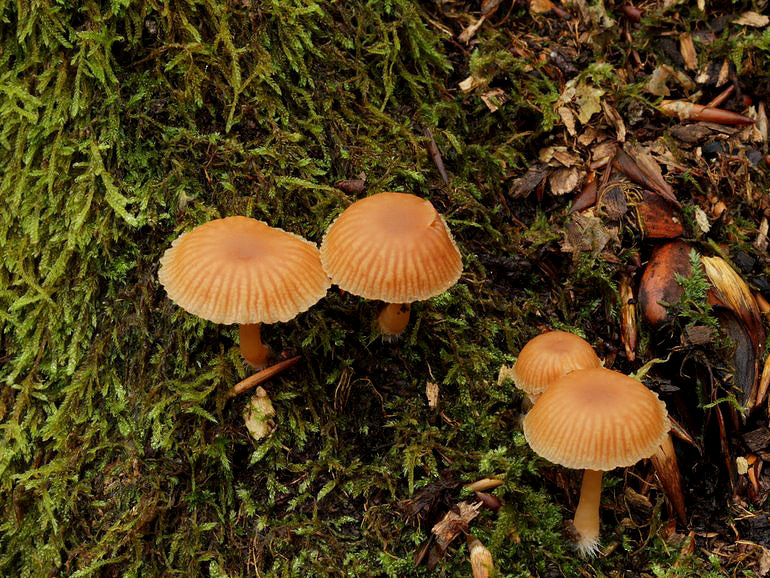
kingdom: Fungi
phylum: Basidiomycota
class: Agaricomycetes
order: Agaricales
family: Tubariaceae
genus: Tubaria
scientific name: Tubaria furfuracea
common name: kliddet fnughat
